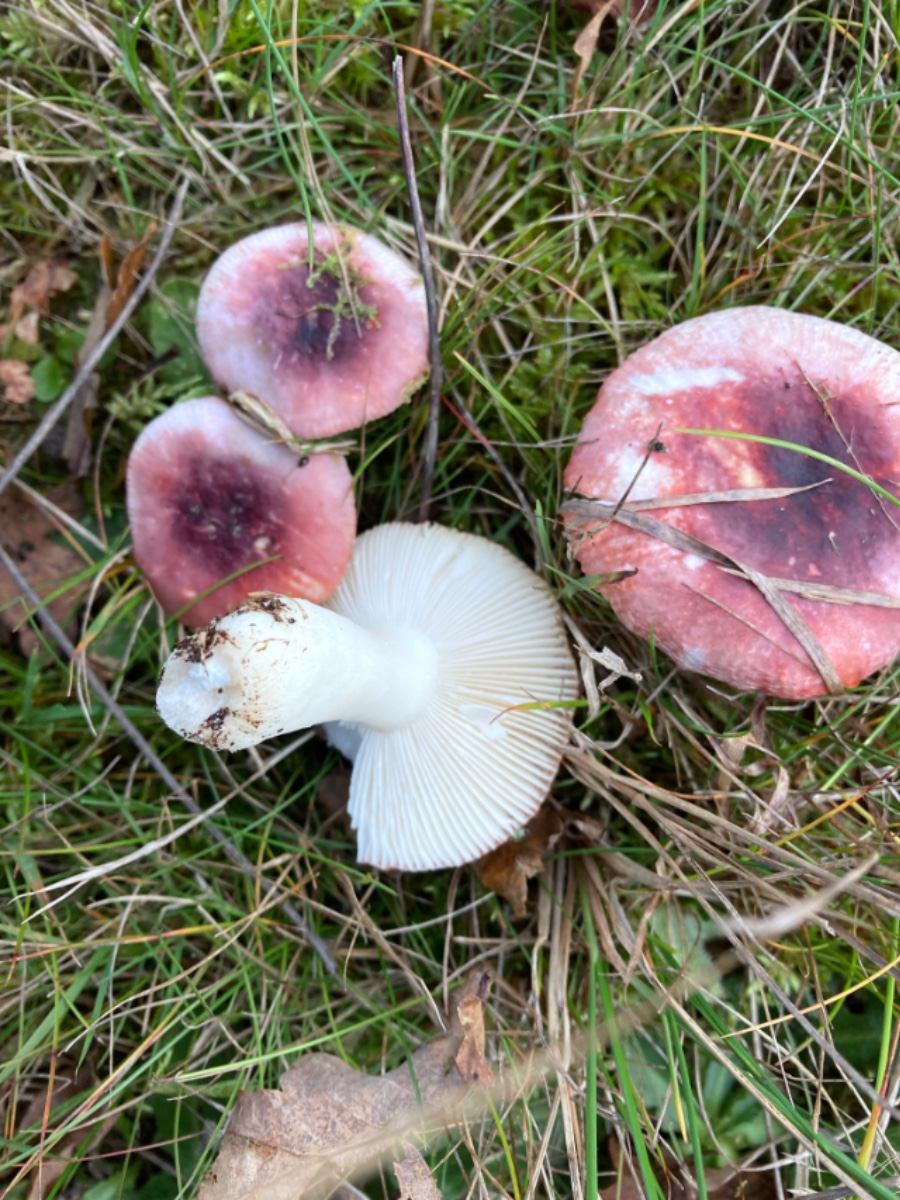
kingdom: Fungi
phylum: Basidiomycota
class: Agaricomycetes
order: Russulales
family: Russulaceae
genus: Russula
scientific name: Russula fragilis
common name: savbladet skørhat
